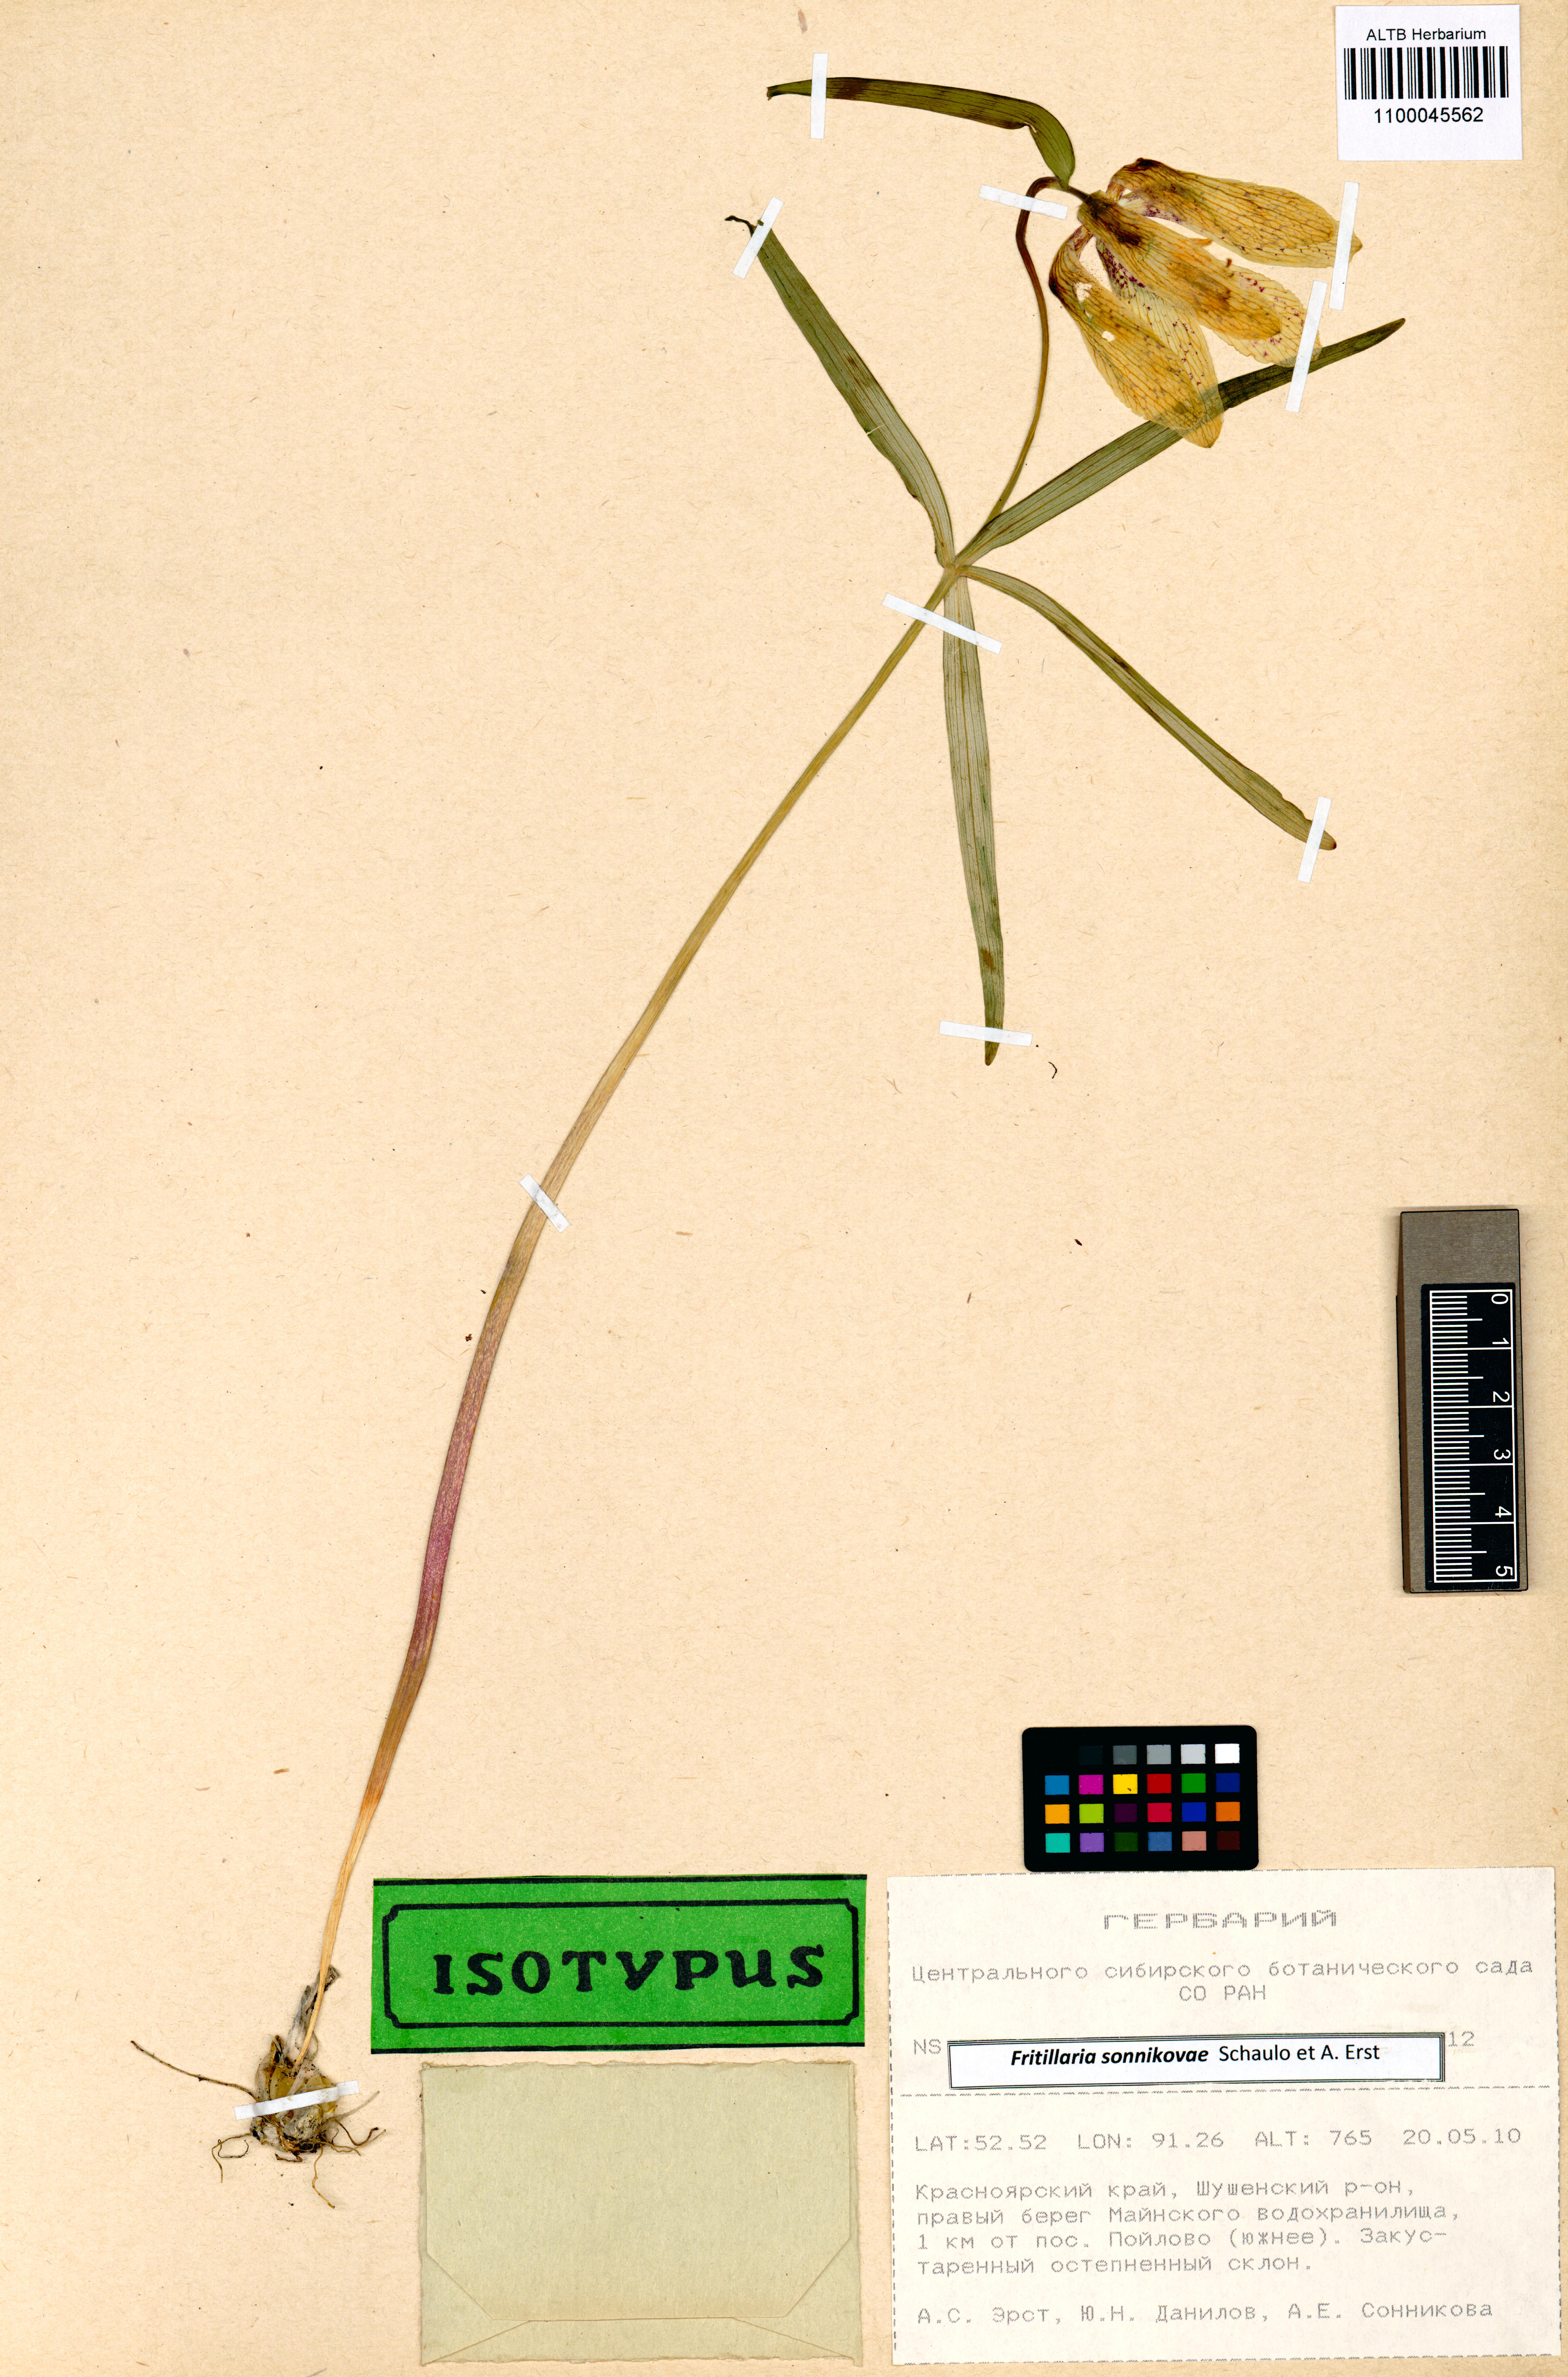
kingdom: Plantae
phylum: Tracheophyta
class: Liliopsida
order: Liliales
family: Liliaceae
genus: Fritillaria
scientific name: Fritillaria sonnikovae
